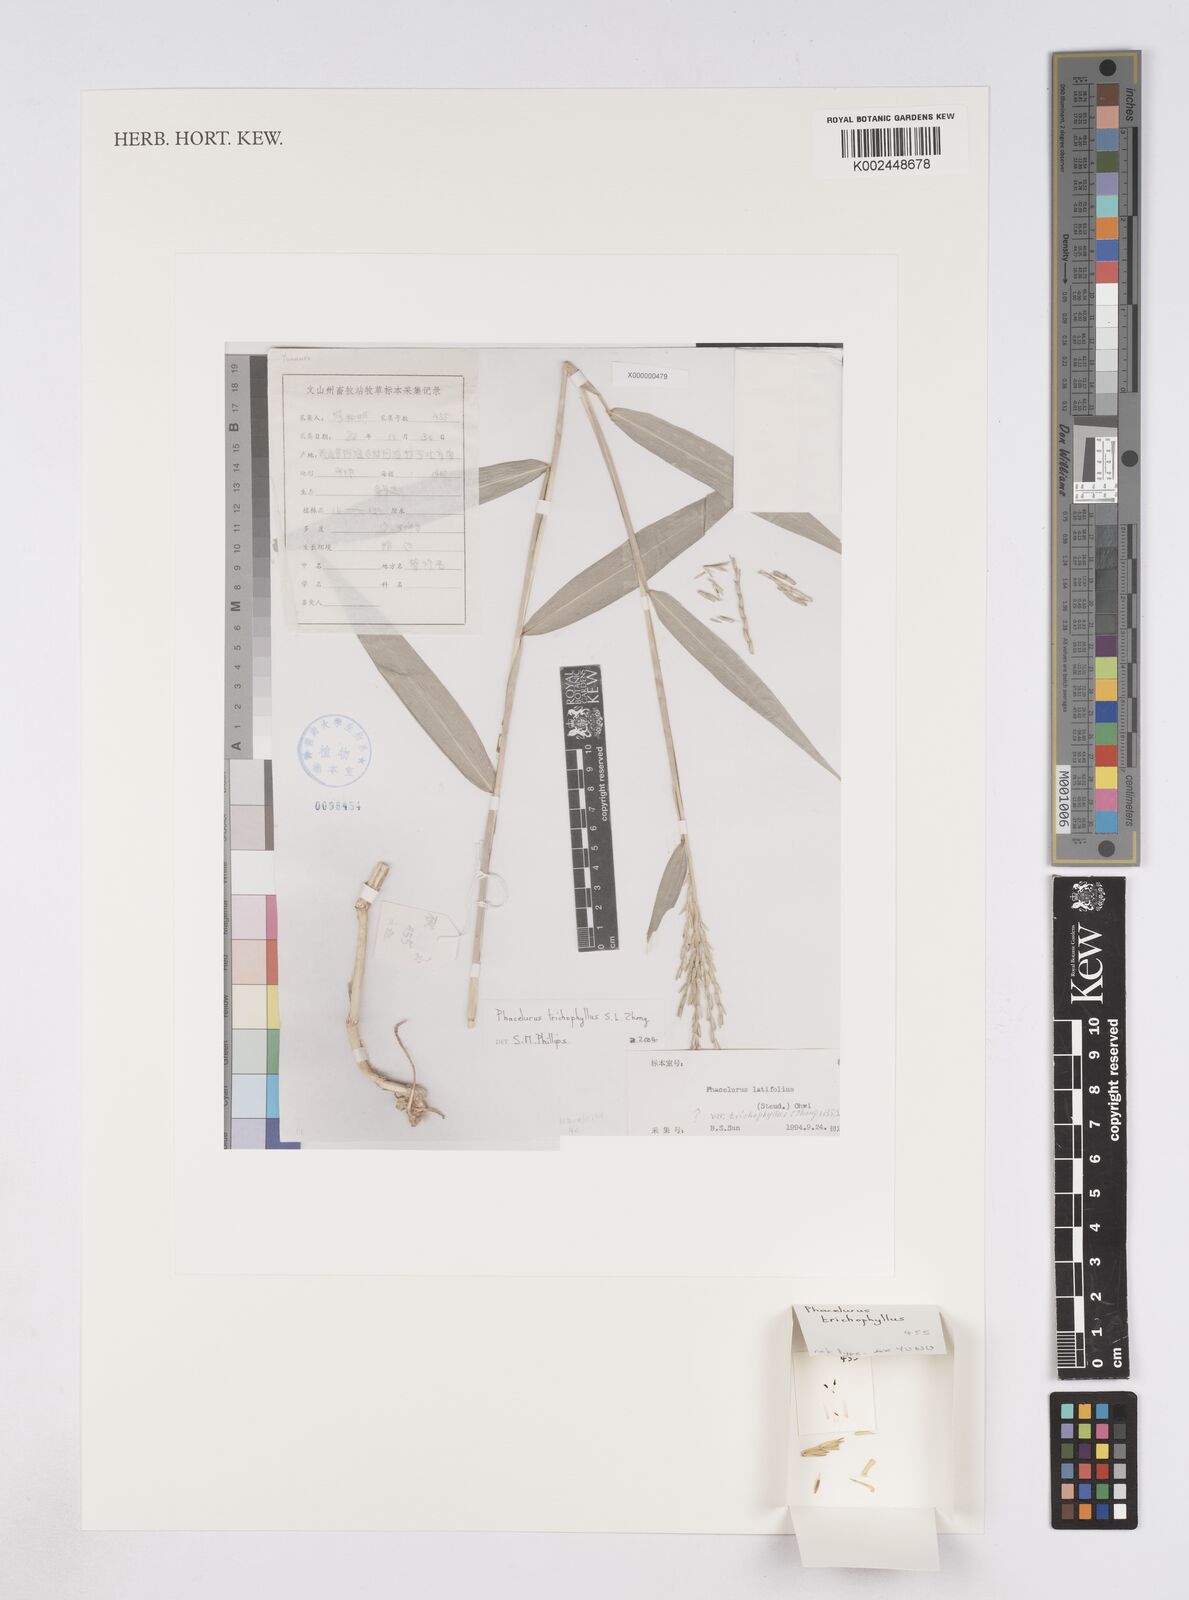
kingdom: Plantae
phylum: Tracheophyta
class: Liliopsida
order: Poales
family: Poaceae
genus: Phacelurus
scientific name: Phacelurus trichophyllus
